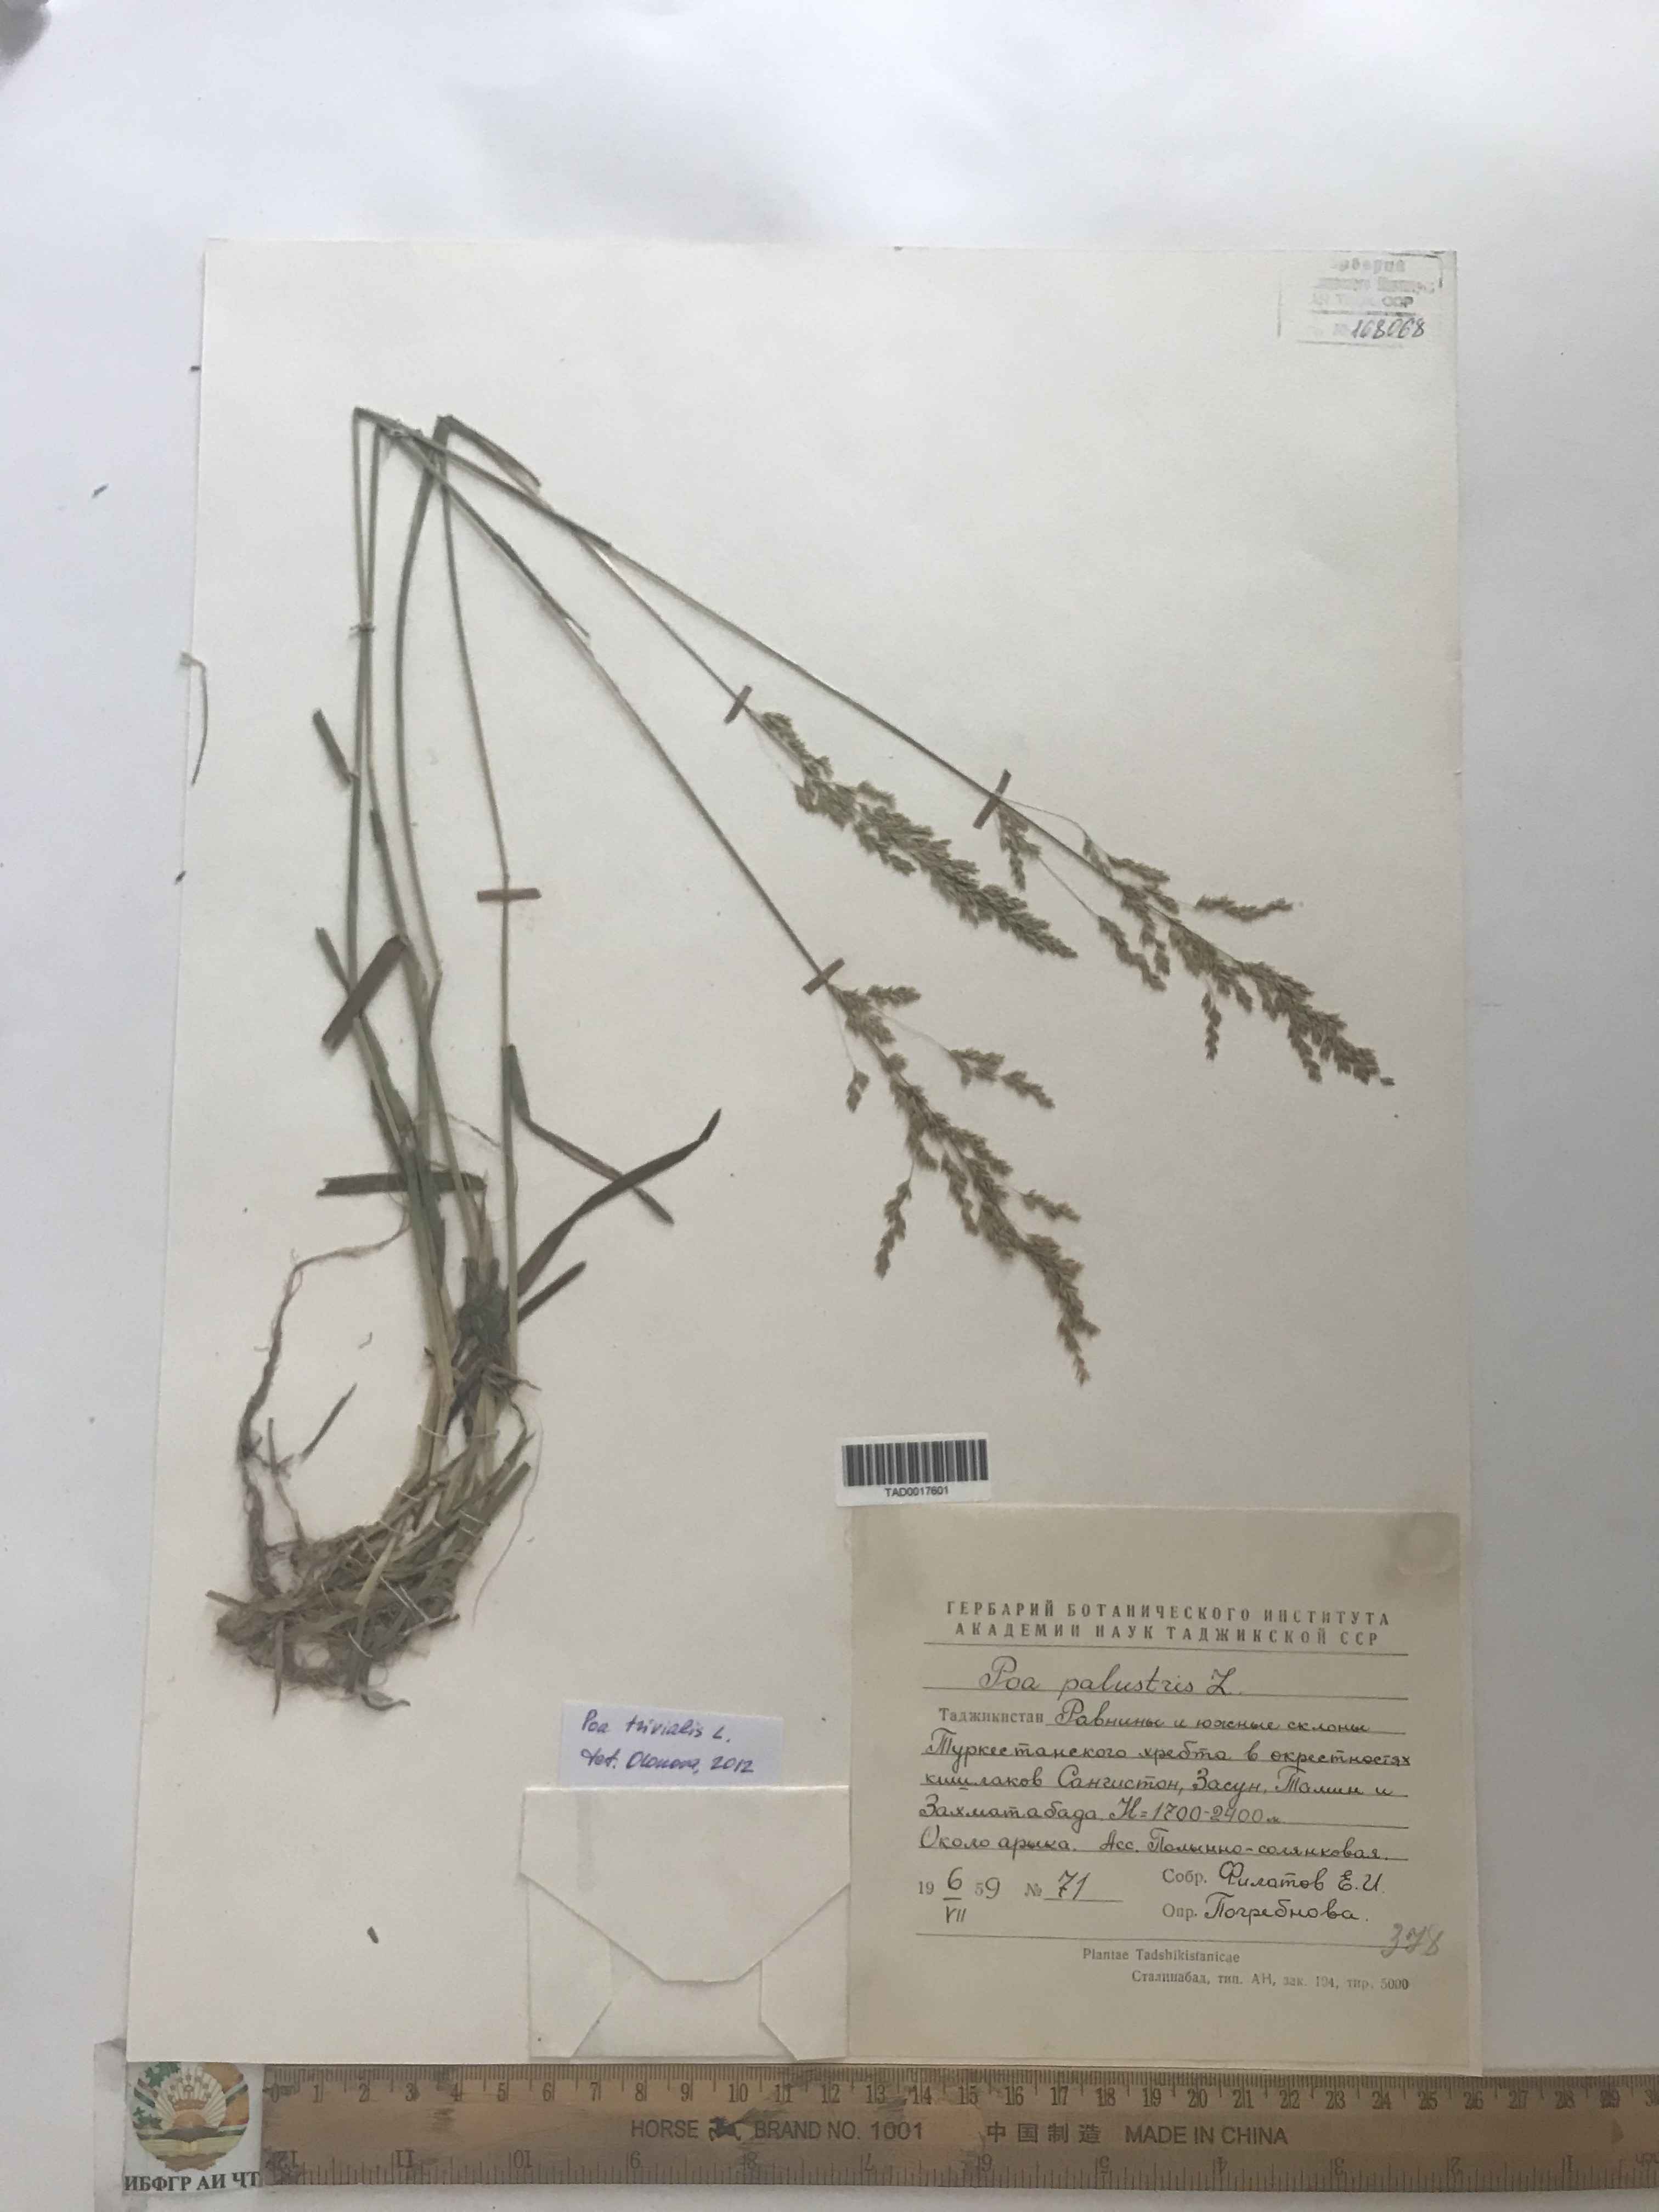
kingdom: Plantae
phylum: Tracheophyta
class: Liliopsida
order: Poales
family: Poaceae
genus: Poa
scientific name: Poa palustris
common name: Swamp meadow-grass
